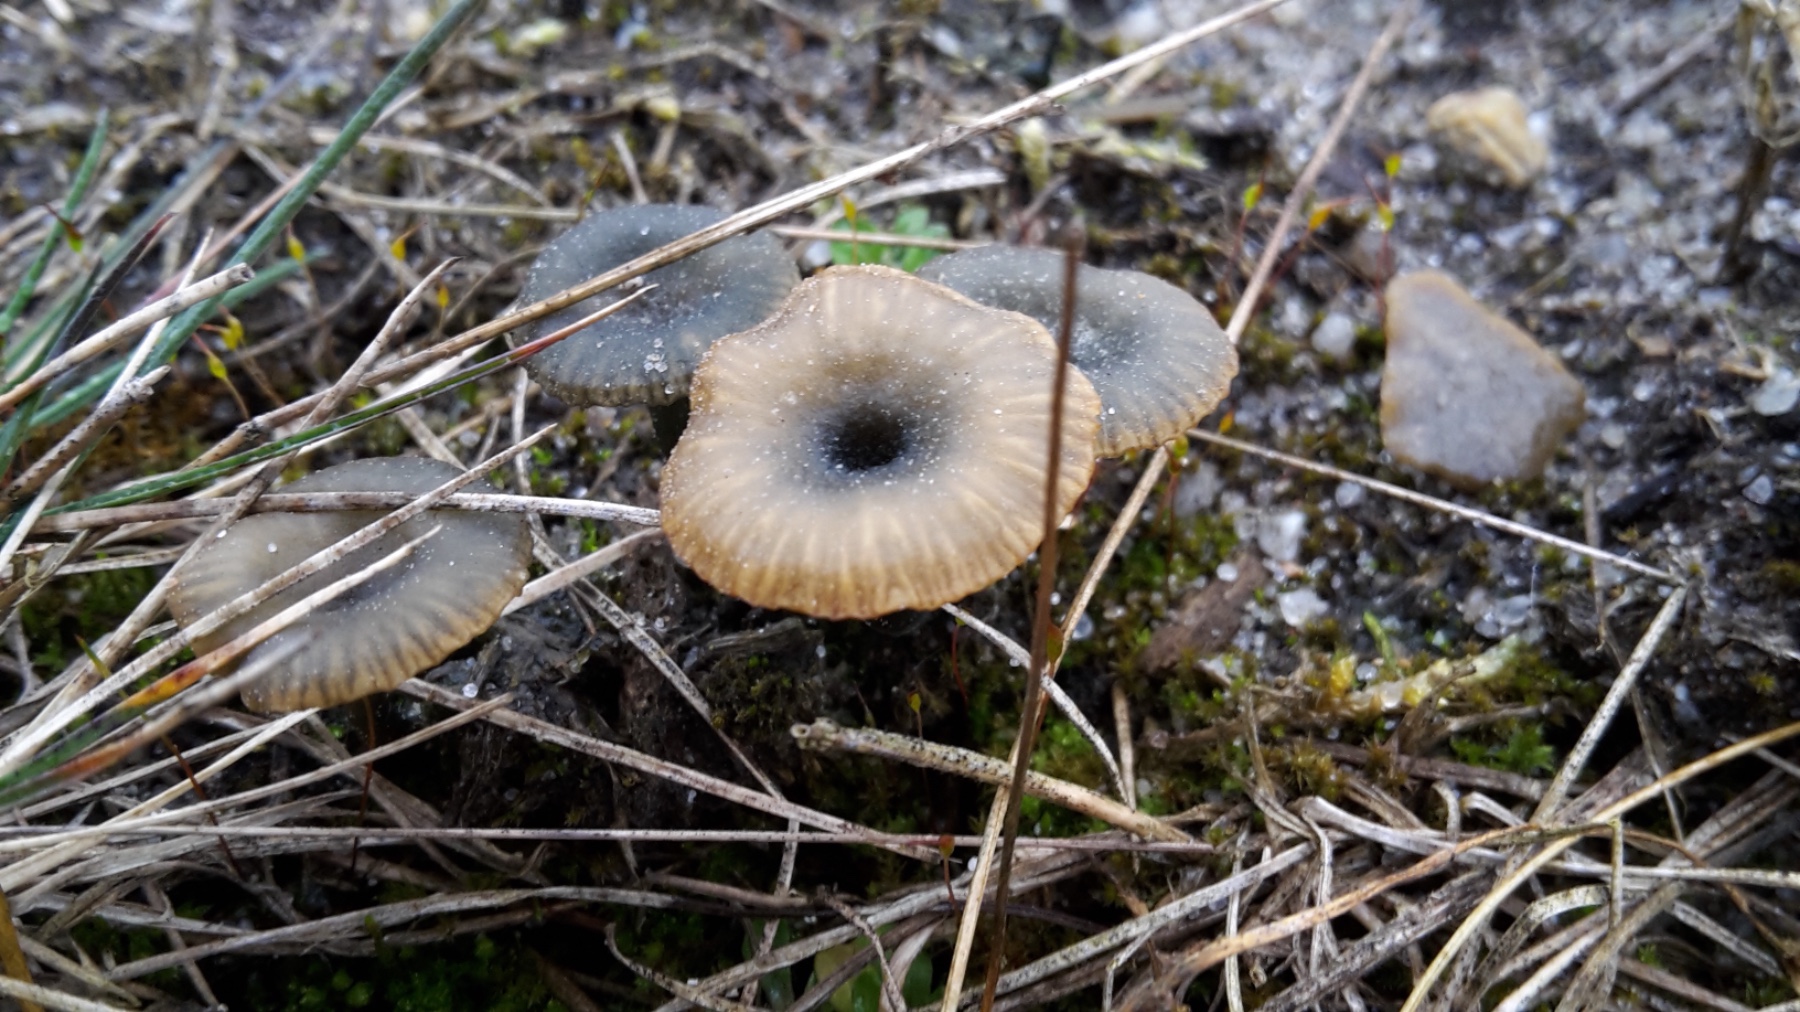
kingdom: Fungi
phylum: Basidiomycota
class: Agaricomycetes
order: Agaricales
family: Hygrophoraceae
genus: Arrhenia
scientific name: Arrhenia chlorocyanea
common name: blågrøn fontænehat
